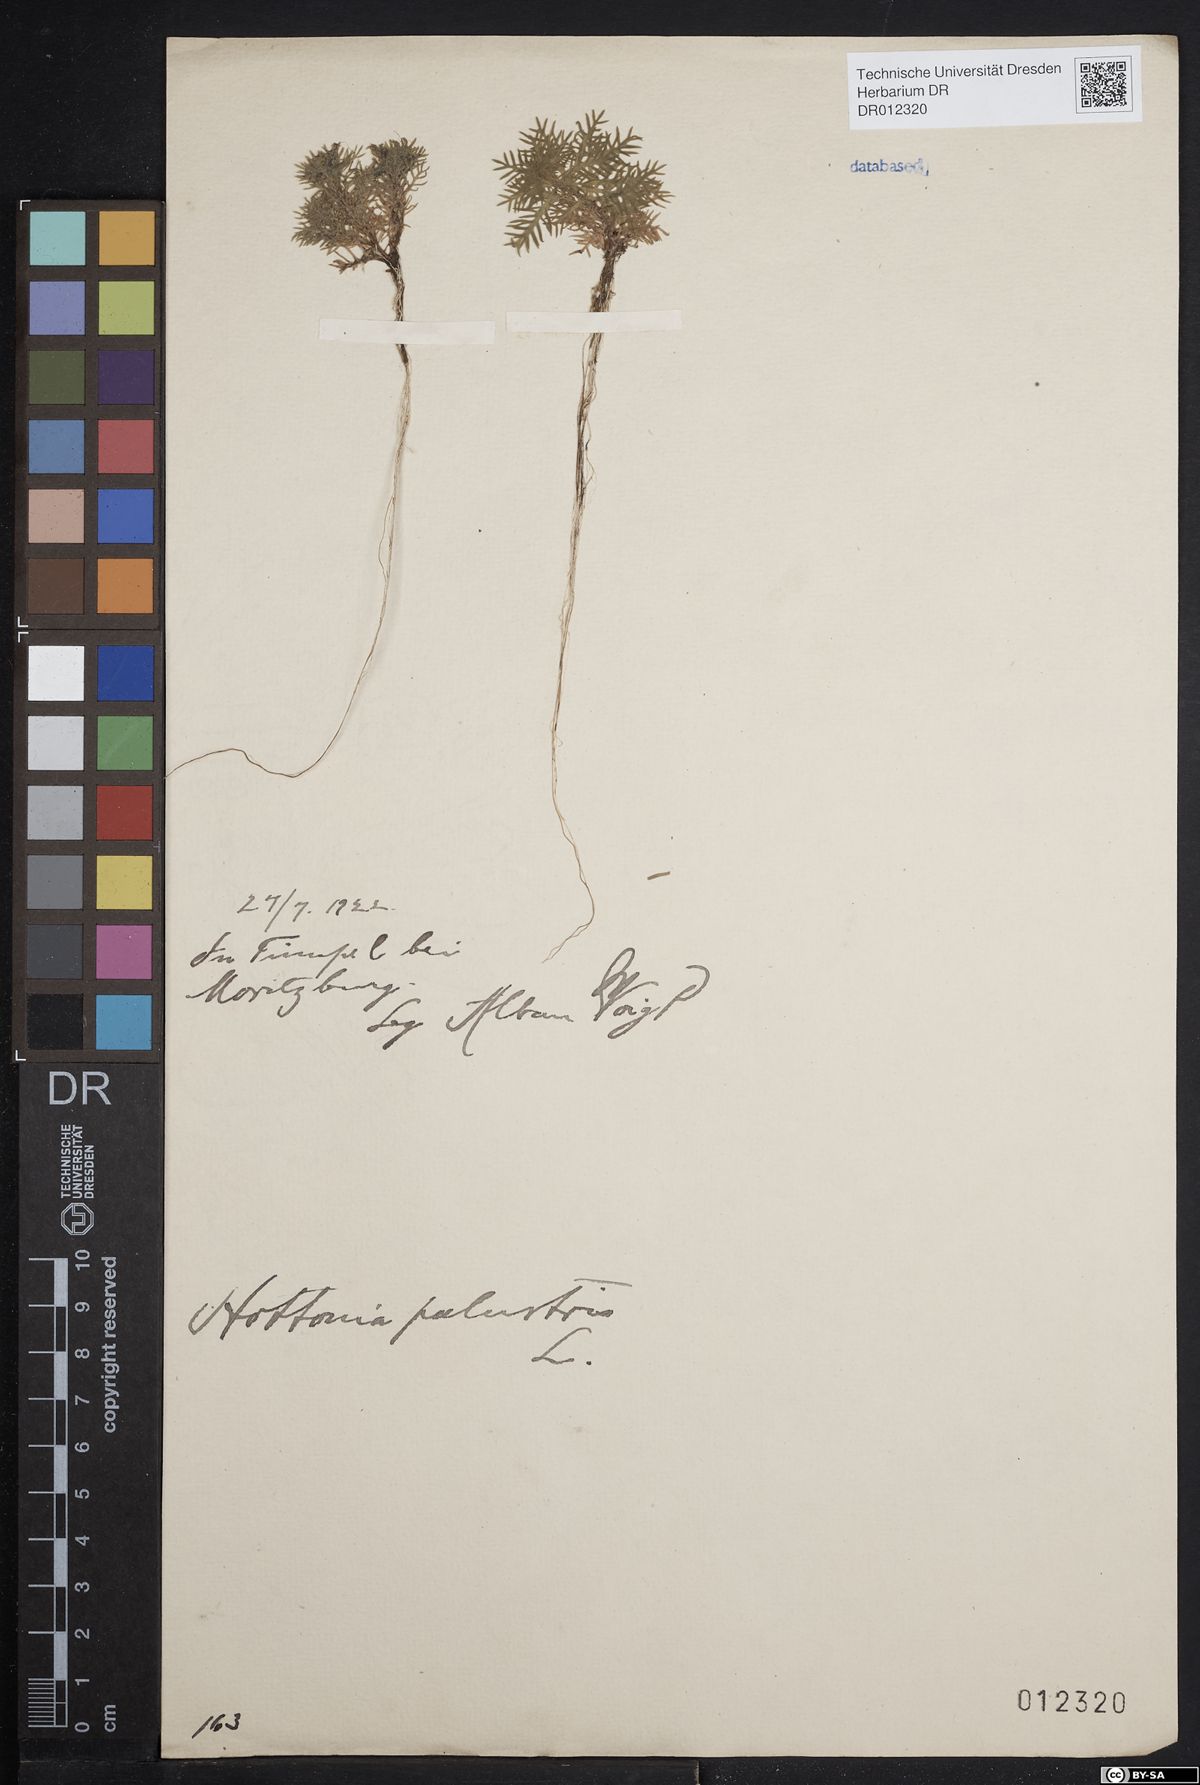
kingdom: Plantae
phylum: Tracheophyta
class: Magnoliopsida
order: Ericales
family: Primulaceae
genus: Hottonia
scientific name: Hottonia palustris
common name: Water-violet
